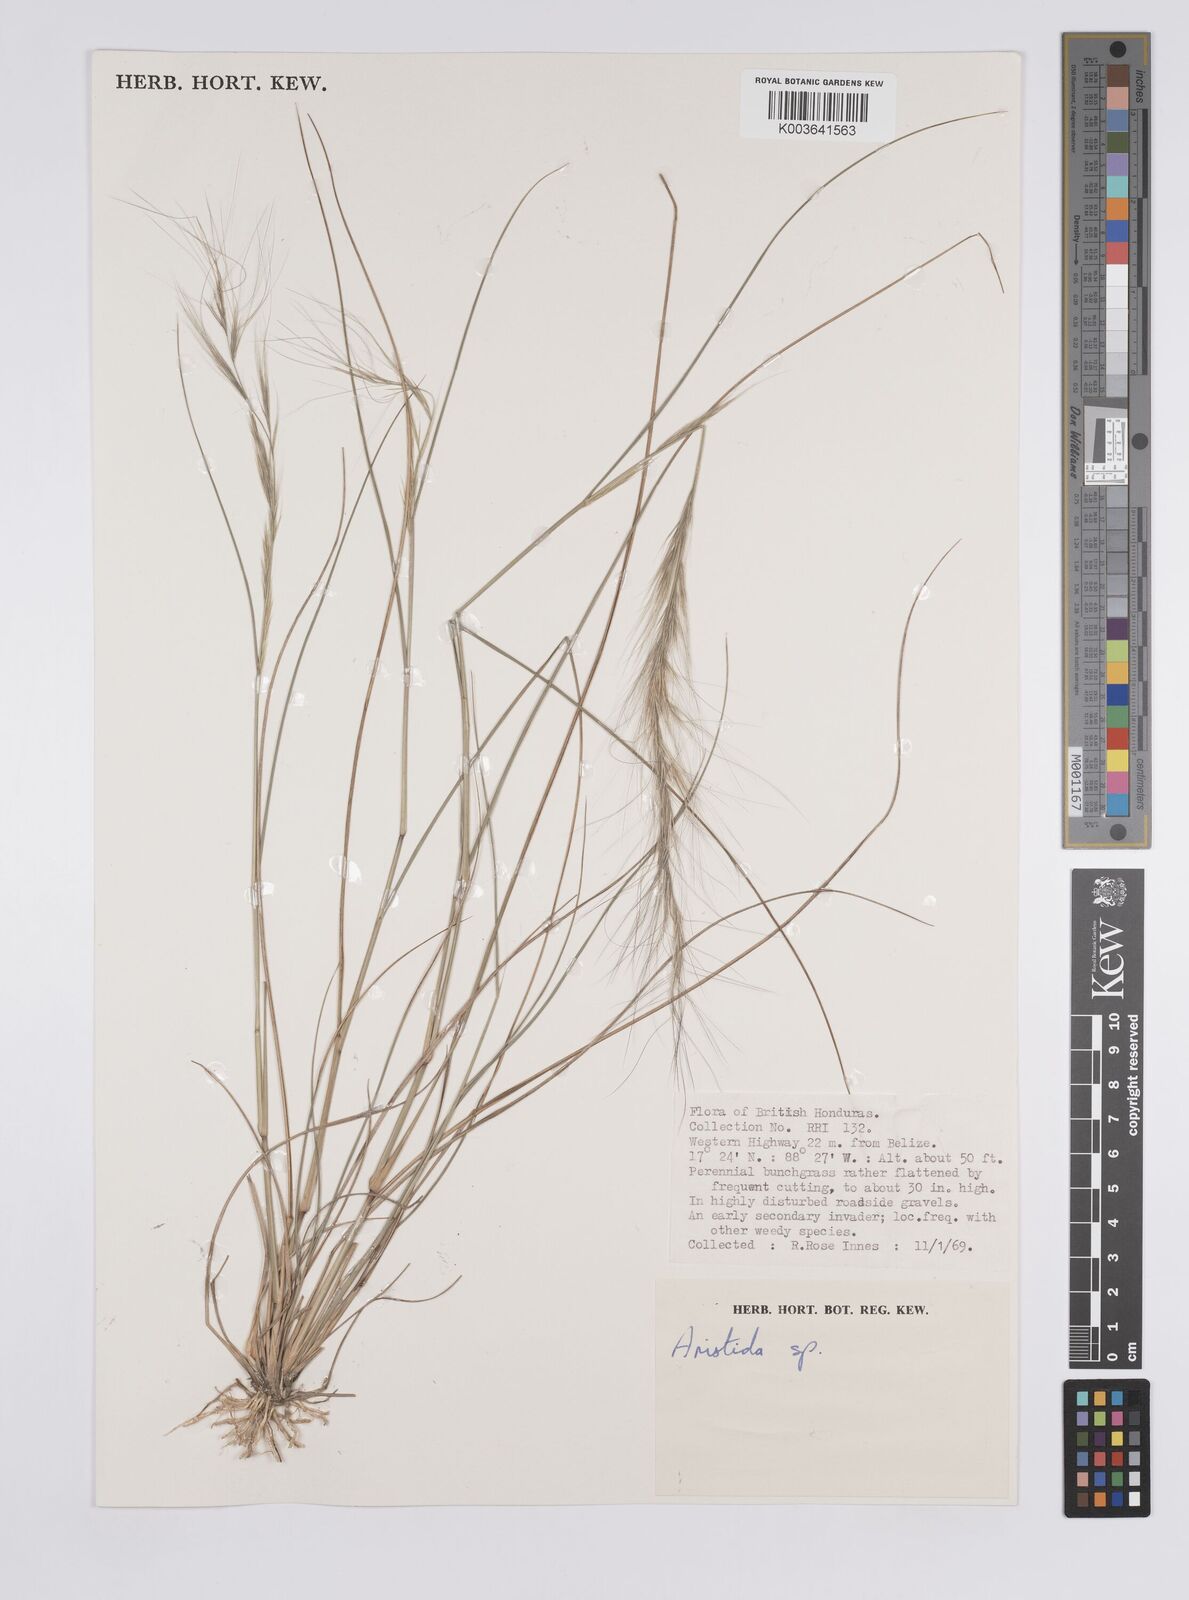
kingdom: Plantae
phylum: Tracheophyta
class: Liliopsida
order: Poales
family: Poaceae
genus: Aristida
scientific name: Aristida
